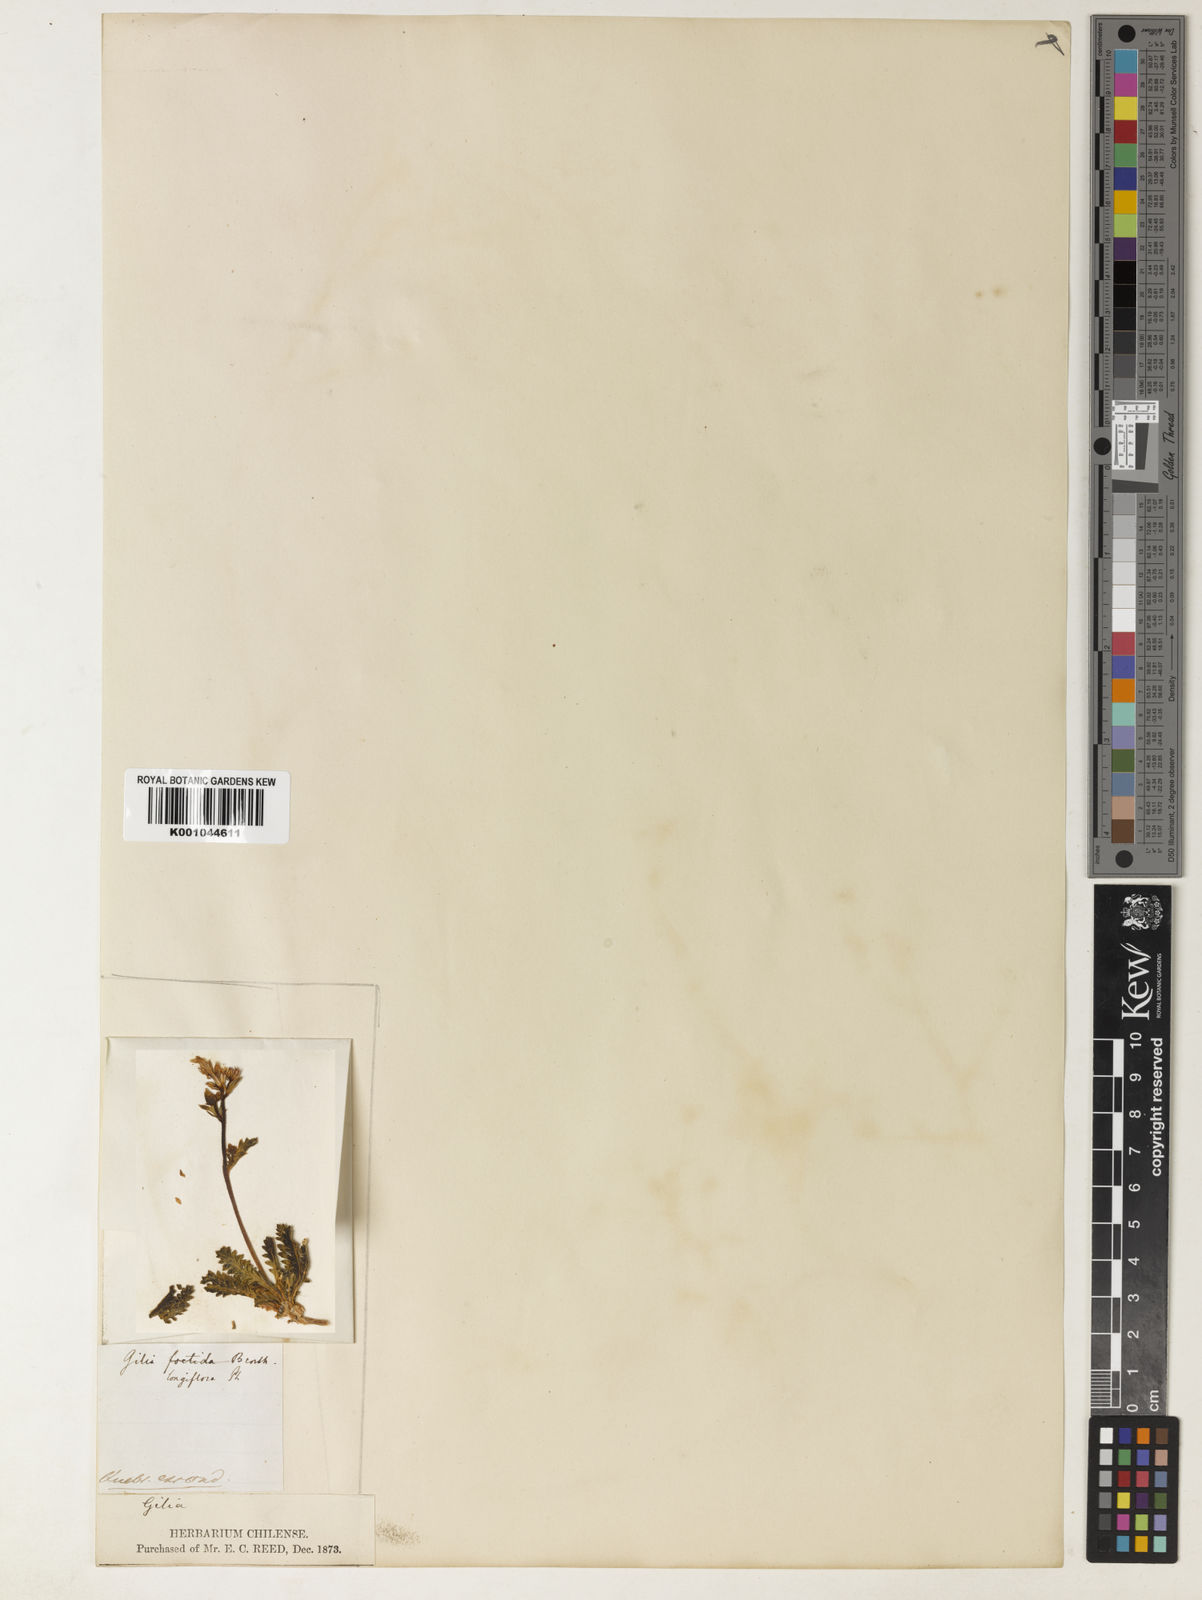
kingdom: Plantae
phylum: Tracheophyta
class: Magnoliopsida
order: Ericales
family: Polemoniaceae
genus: Gilia
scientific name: Gilia crassifolia
